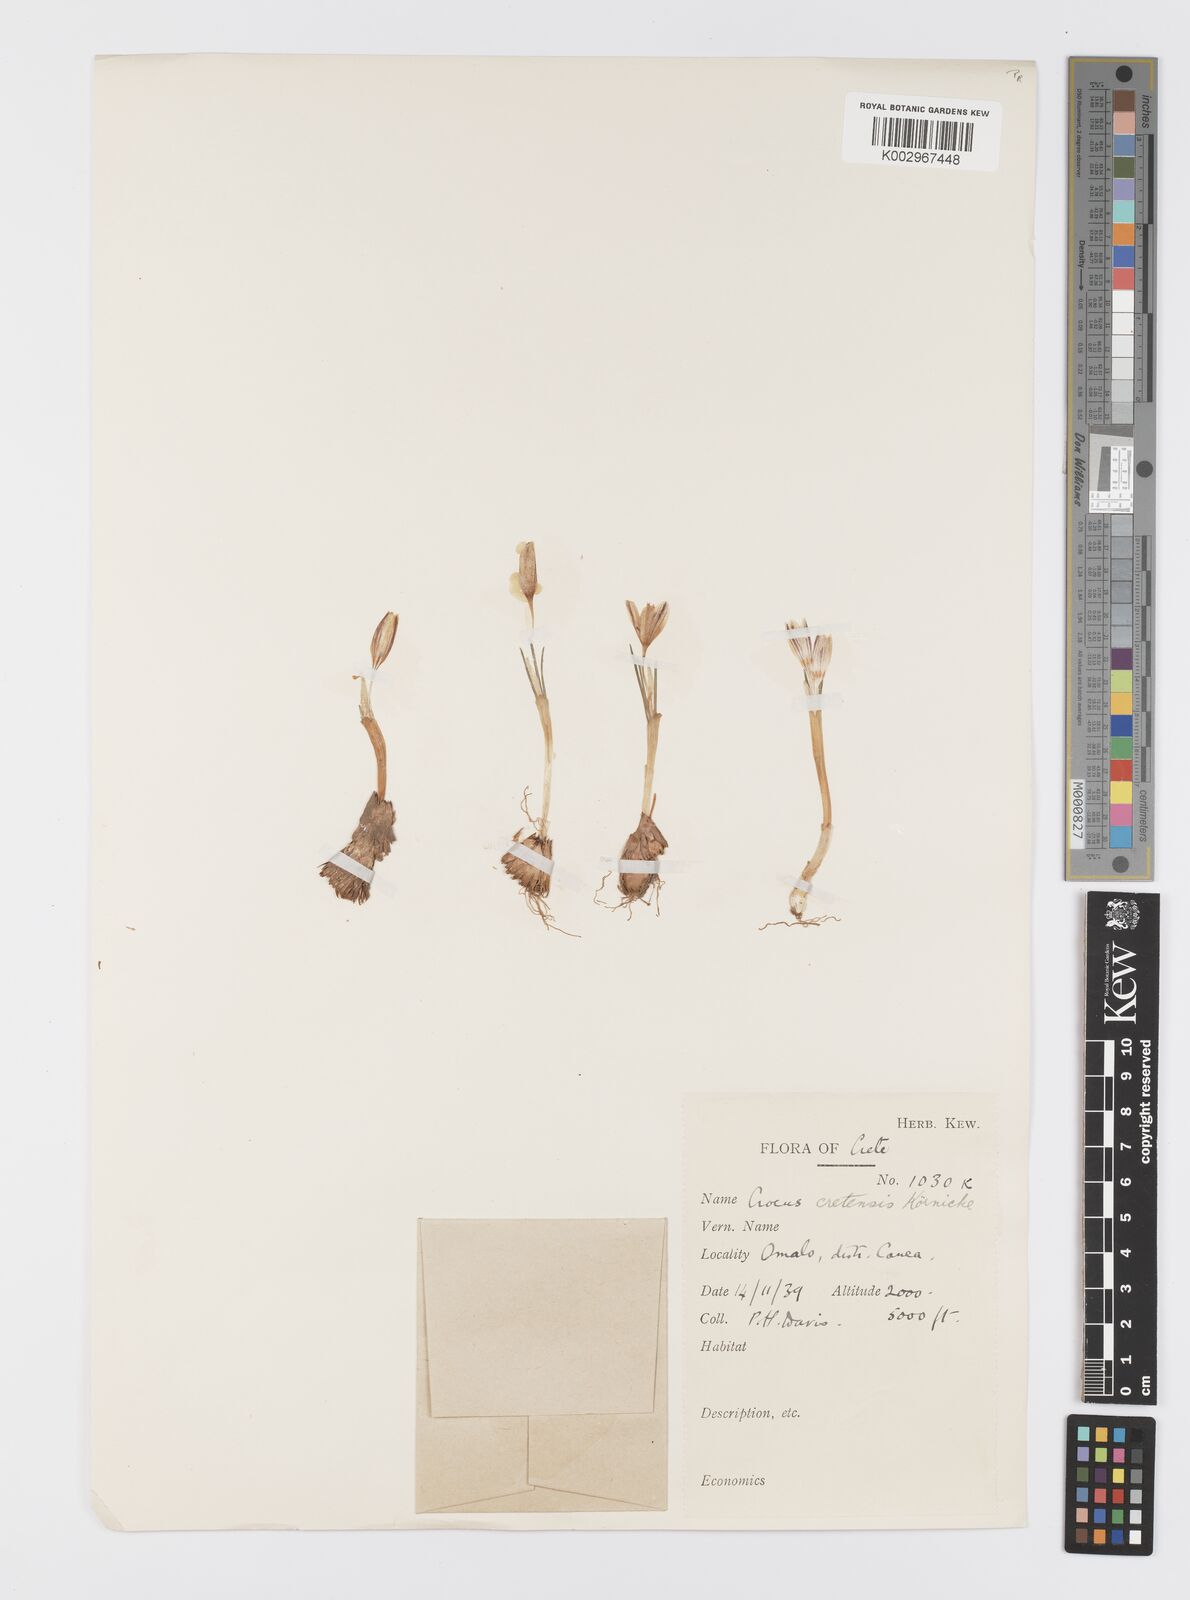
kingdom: Plantae
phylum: Tracheophyta
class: Liliopsida
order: Asparagales
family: Iridaceae
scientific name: Iridaceae
